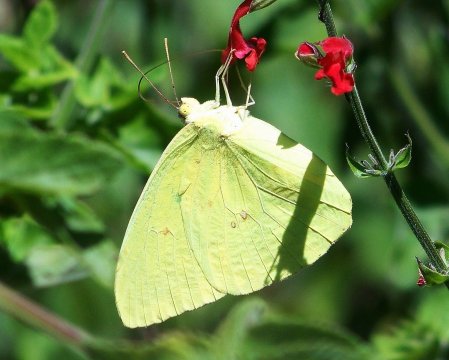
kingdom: Animalia
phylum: Arthropoda
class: Insecta
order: Lepidoptera
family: Pieridae
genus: Phoebis
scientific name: Phoebis sennae
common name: Cloudless Sulphur
